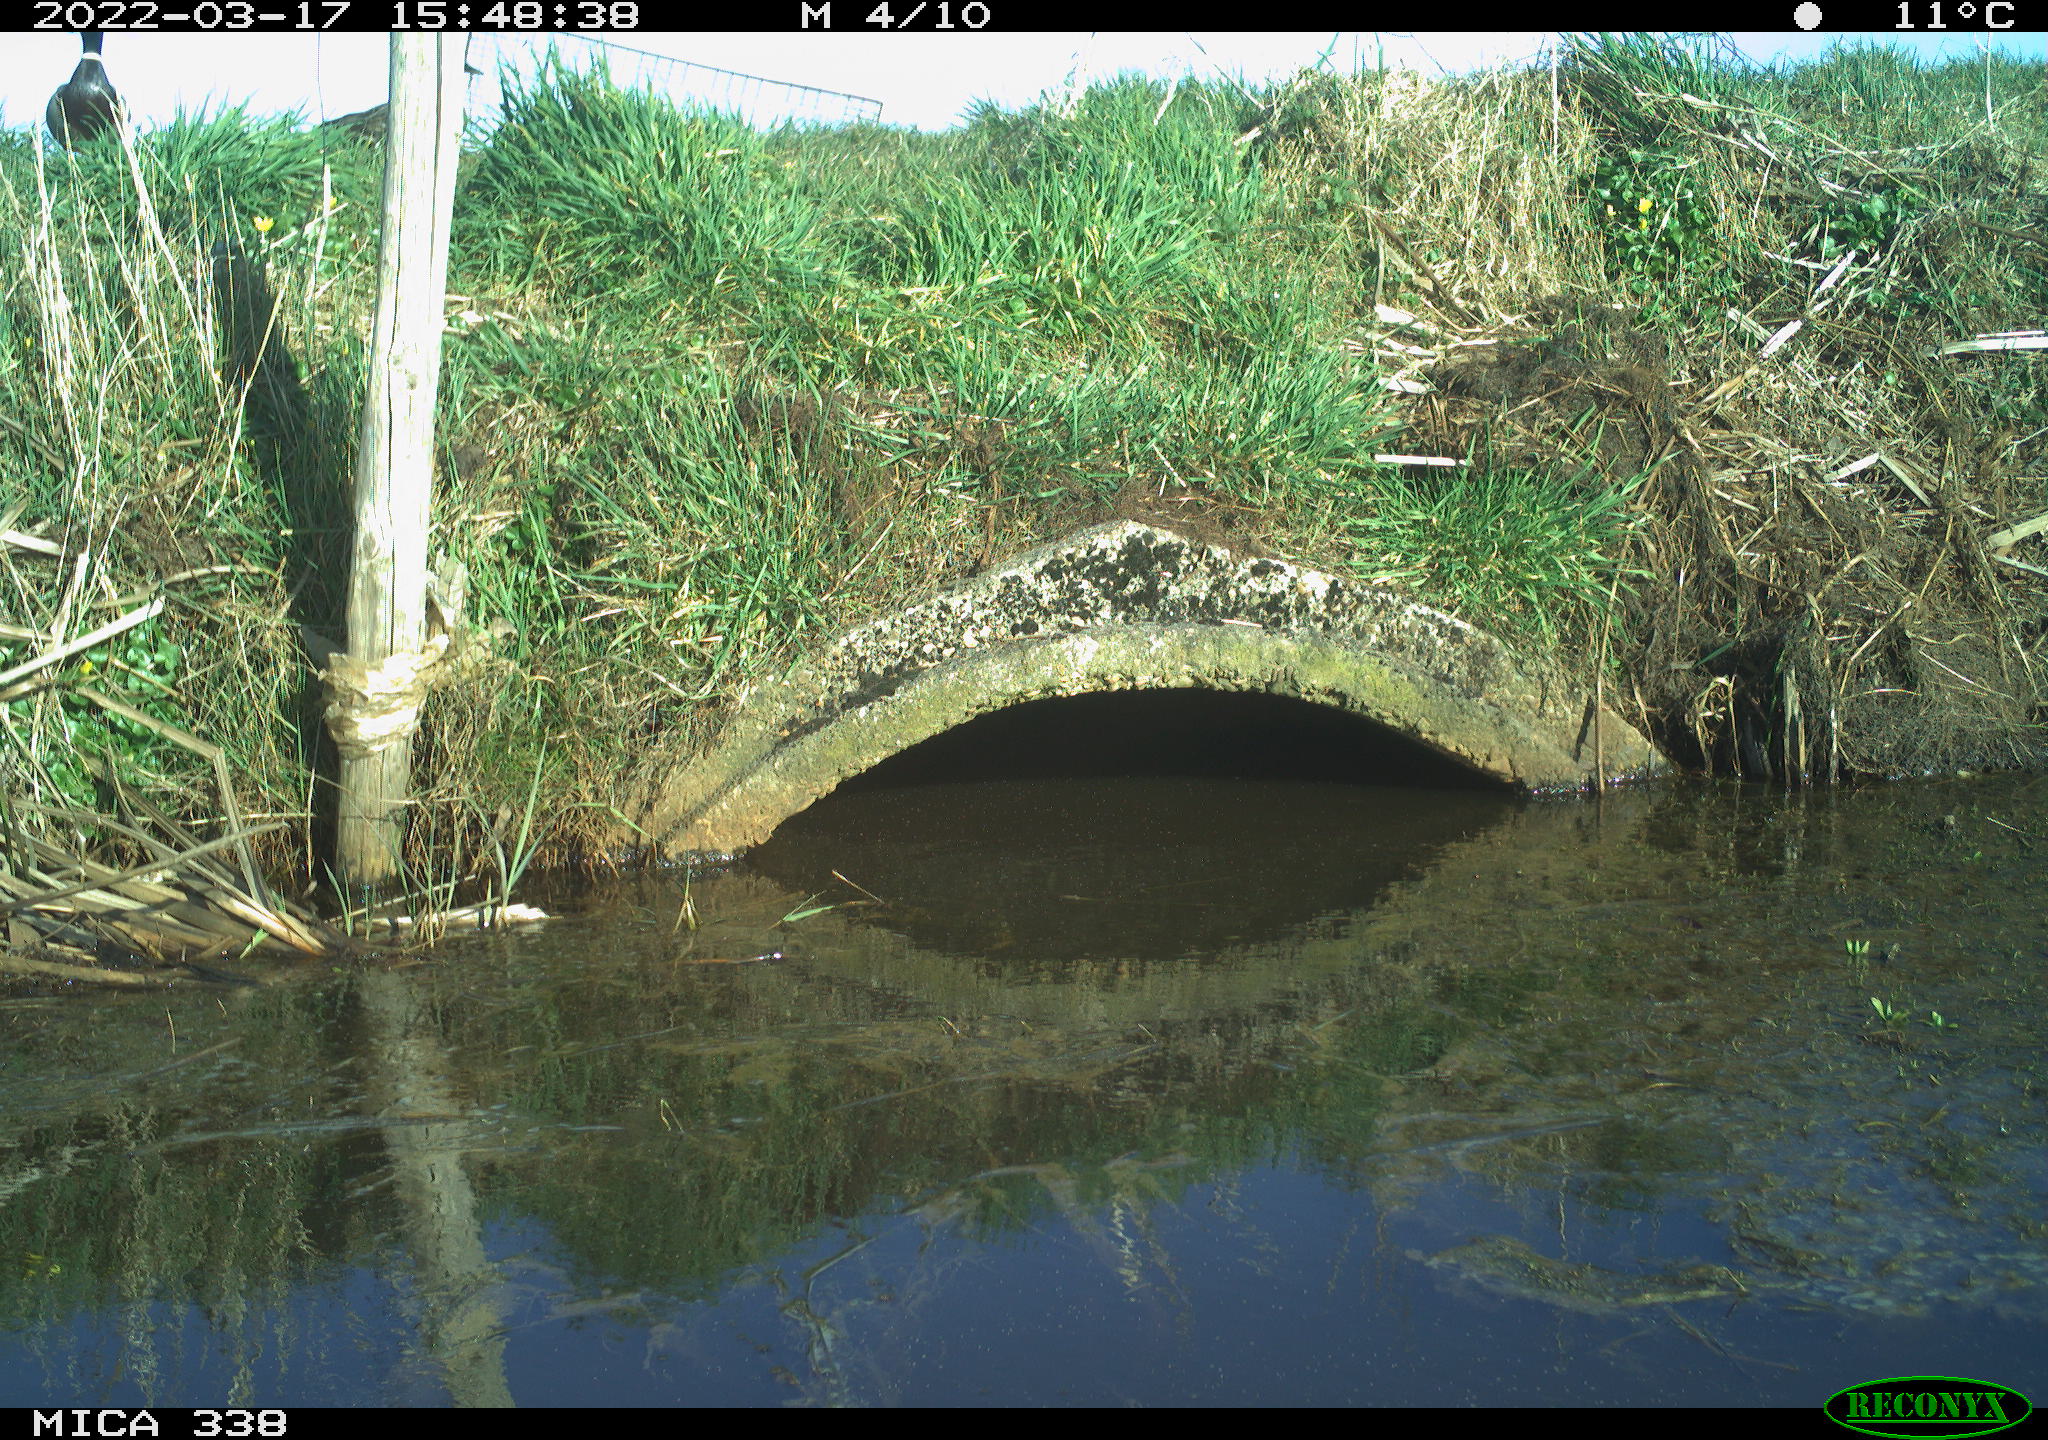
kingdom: Animalia
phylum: Chordata
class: Aves
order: Anseriformes
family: Anatidae
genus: Anas
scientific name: Anas platyrhynchos
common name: Mallard
